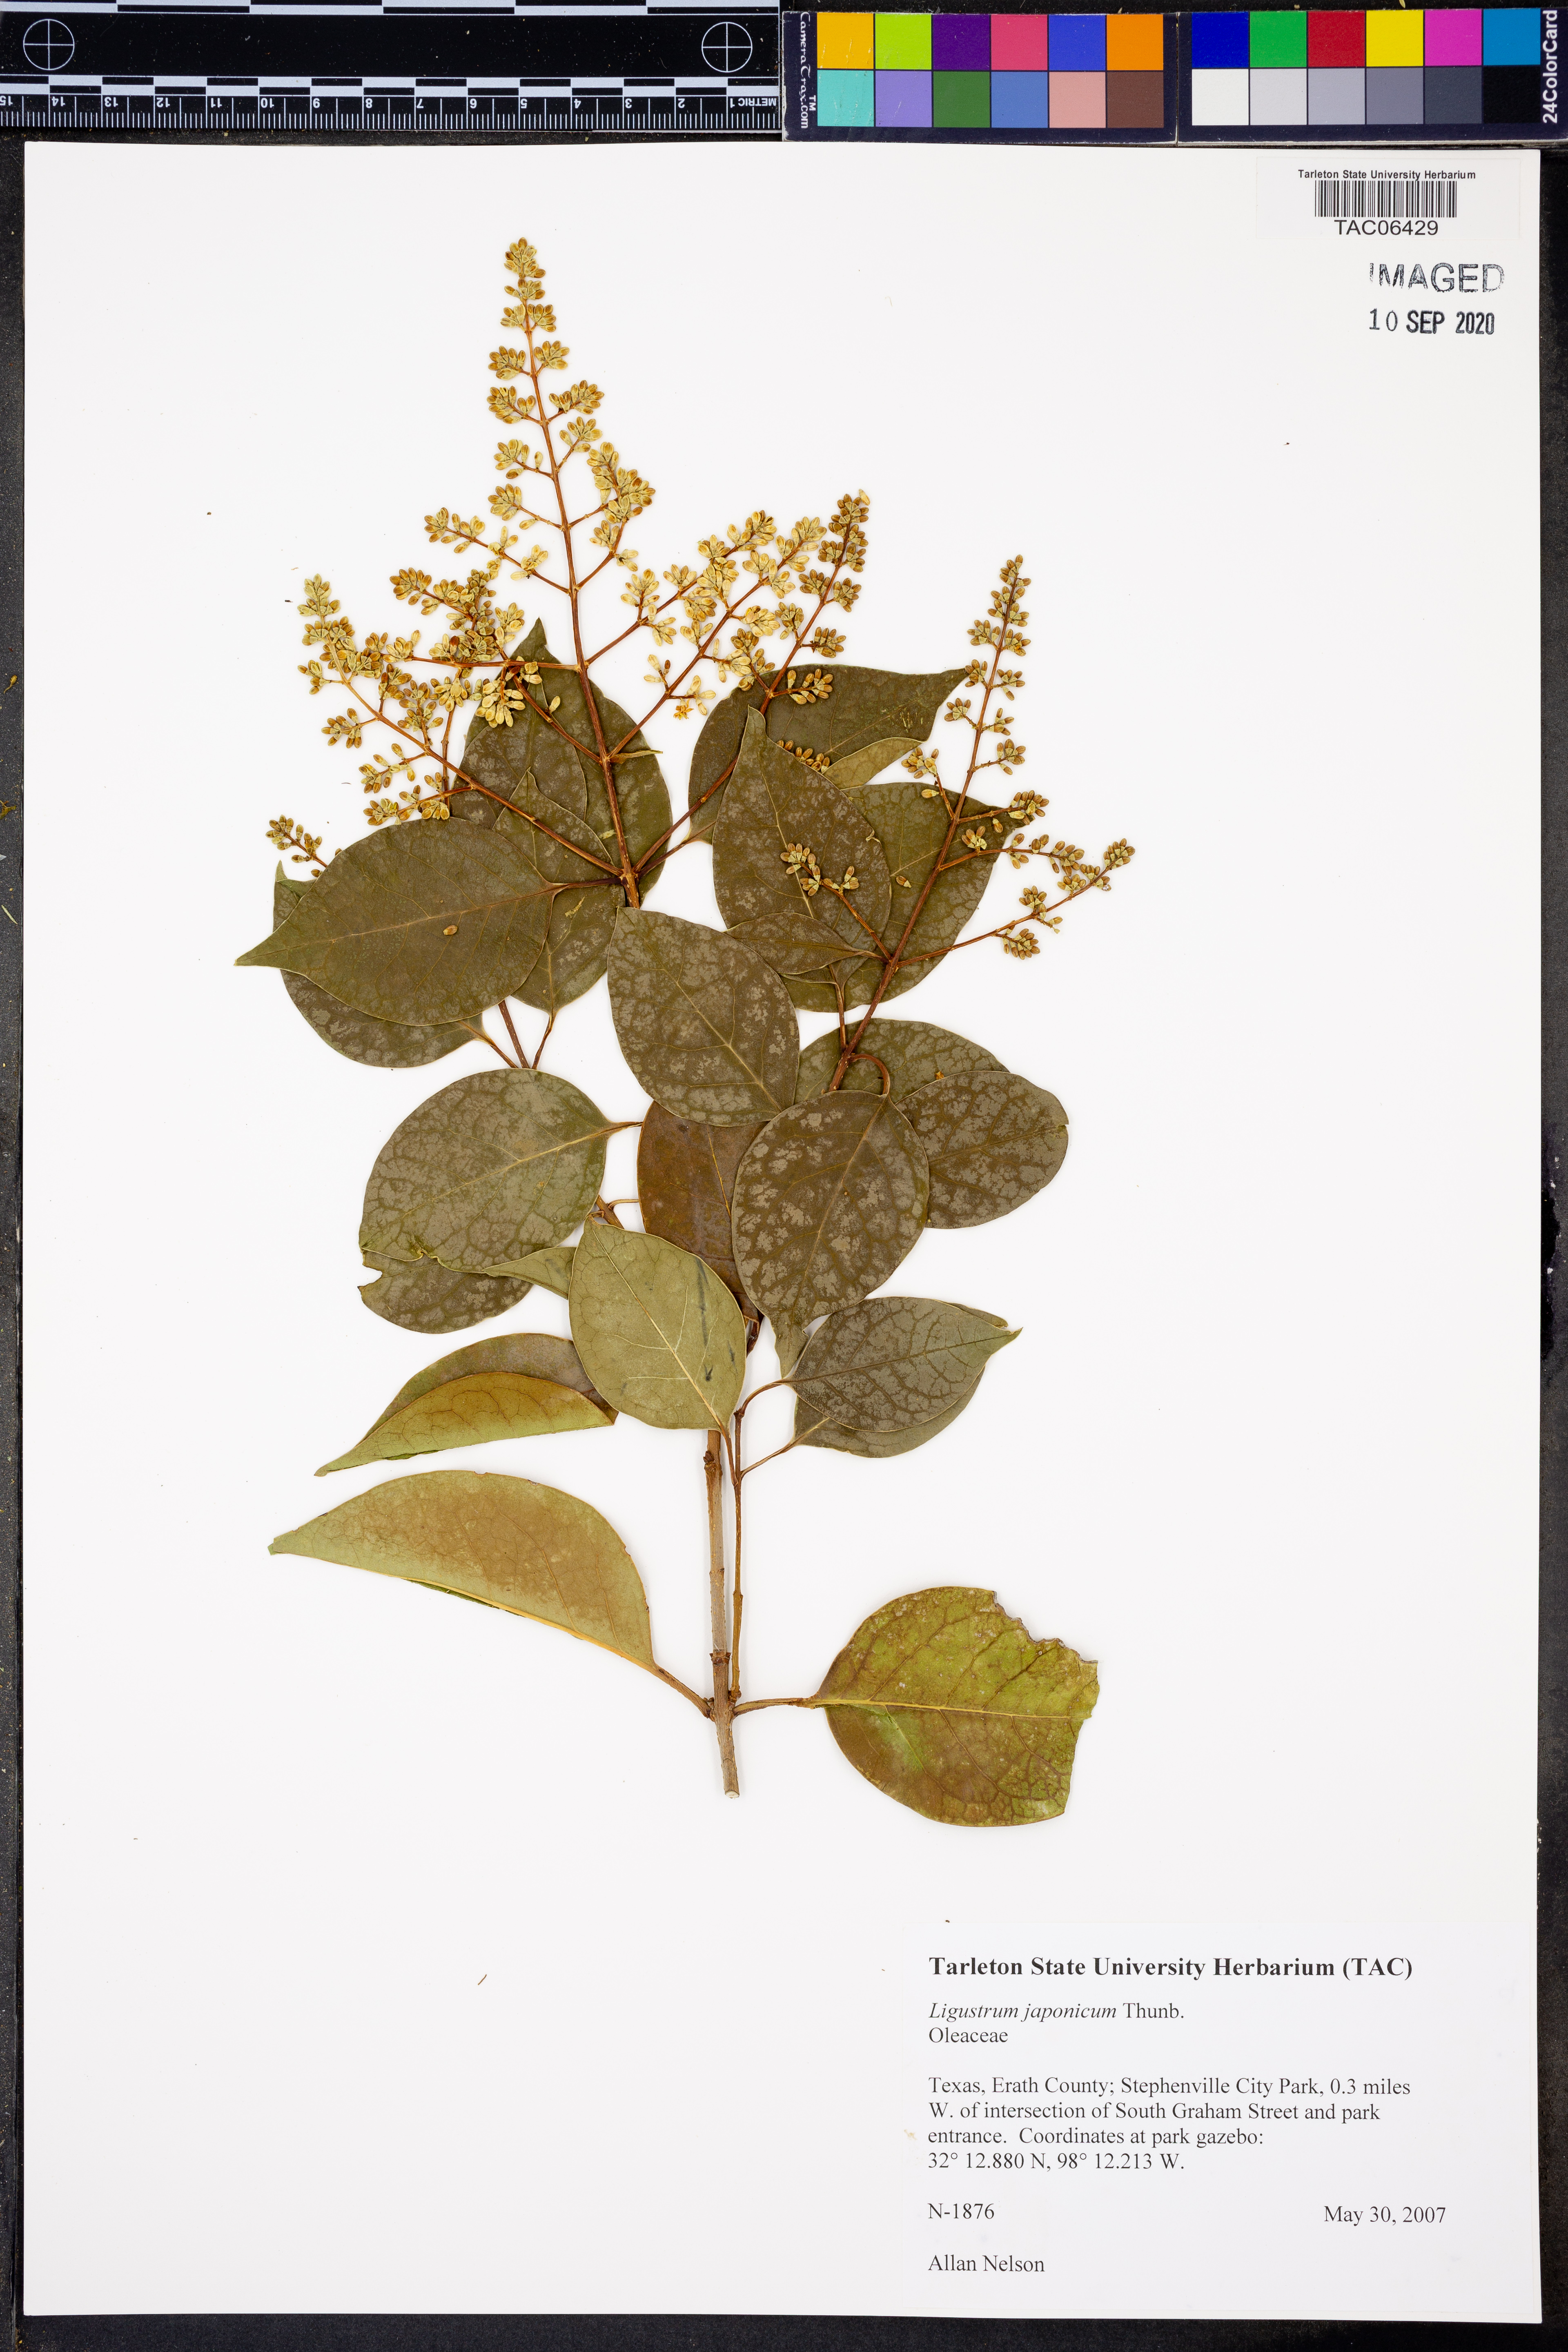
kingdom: Plantae
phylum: Tracheophyta
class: Magnoliopsida
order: Lamiales
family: Oleaceae
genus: Ligustrum
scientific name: Ligustrum japonicum
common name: Japanese privet
